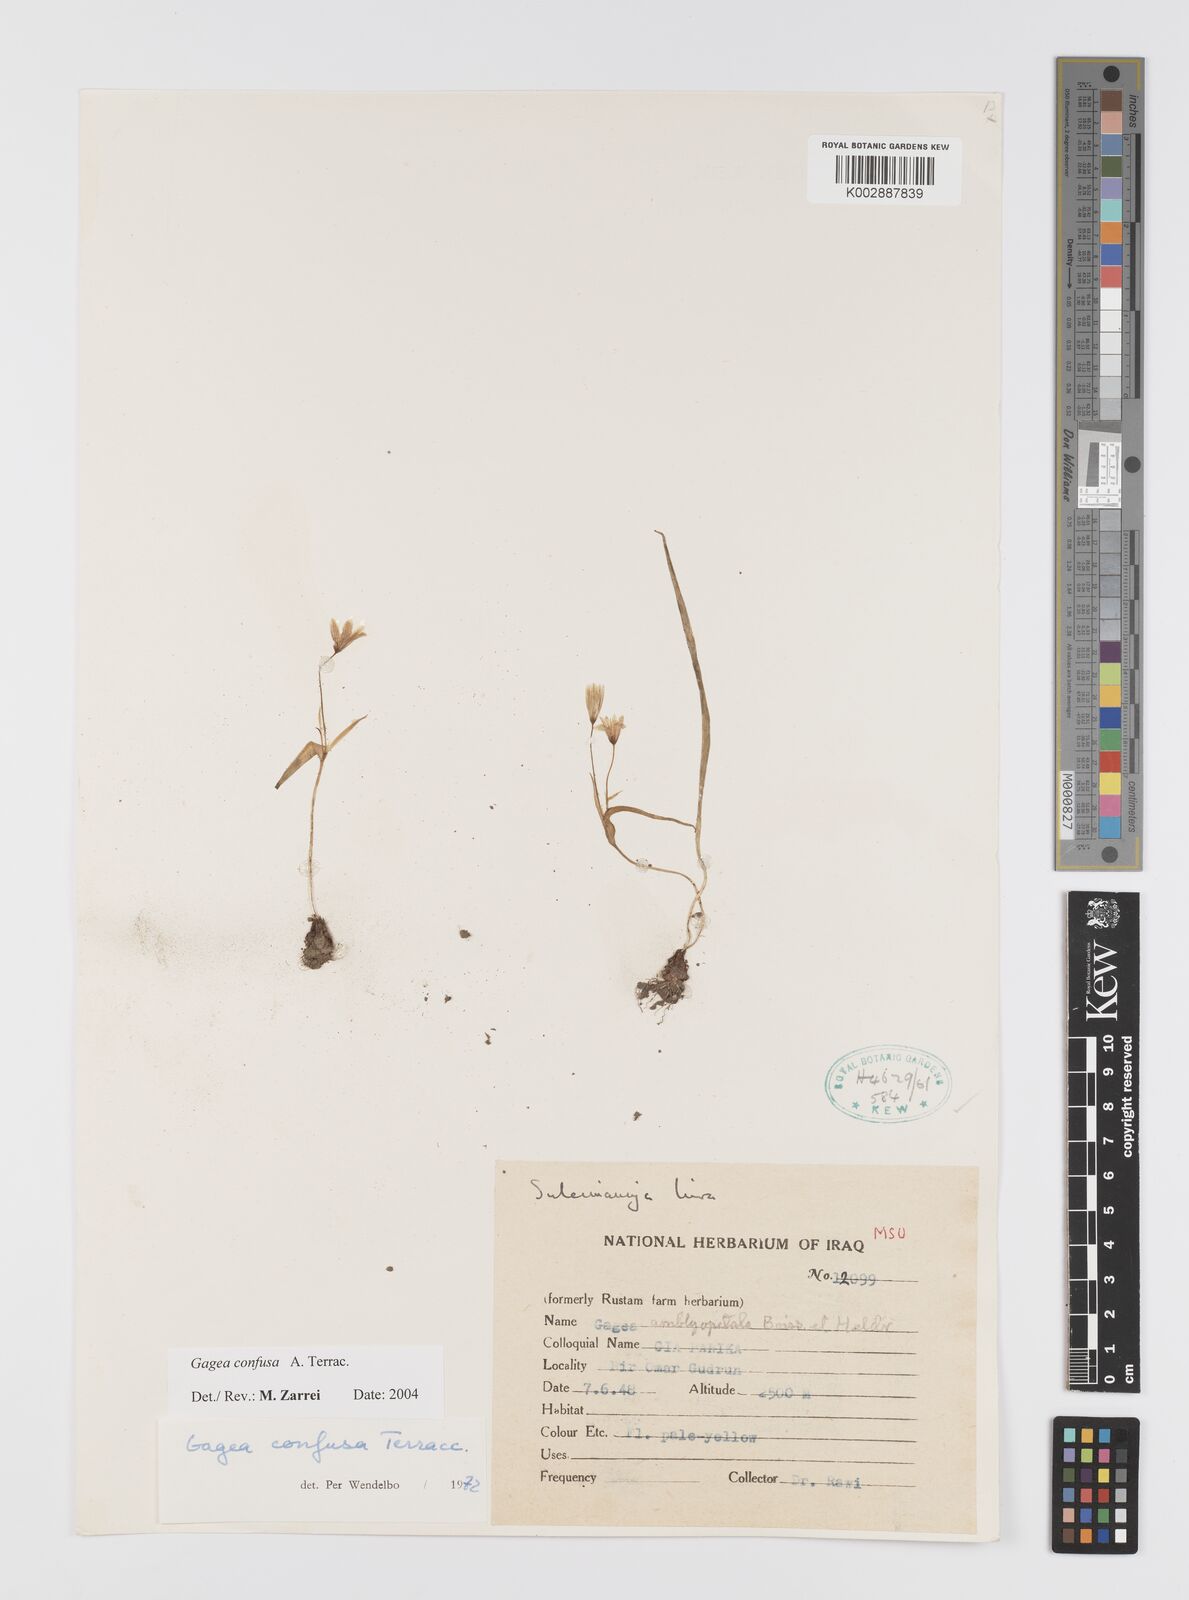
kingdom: Plantae
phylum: Tracheophyta
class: Liliopsida
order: Liliales
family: Liliaceae
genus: Gagea
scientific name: Gagea confusa
